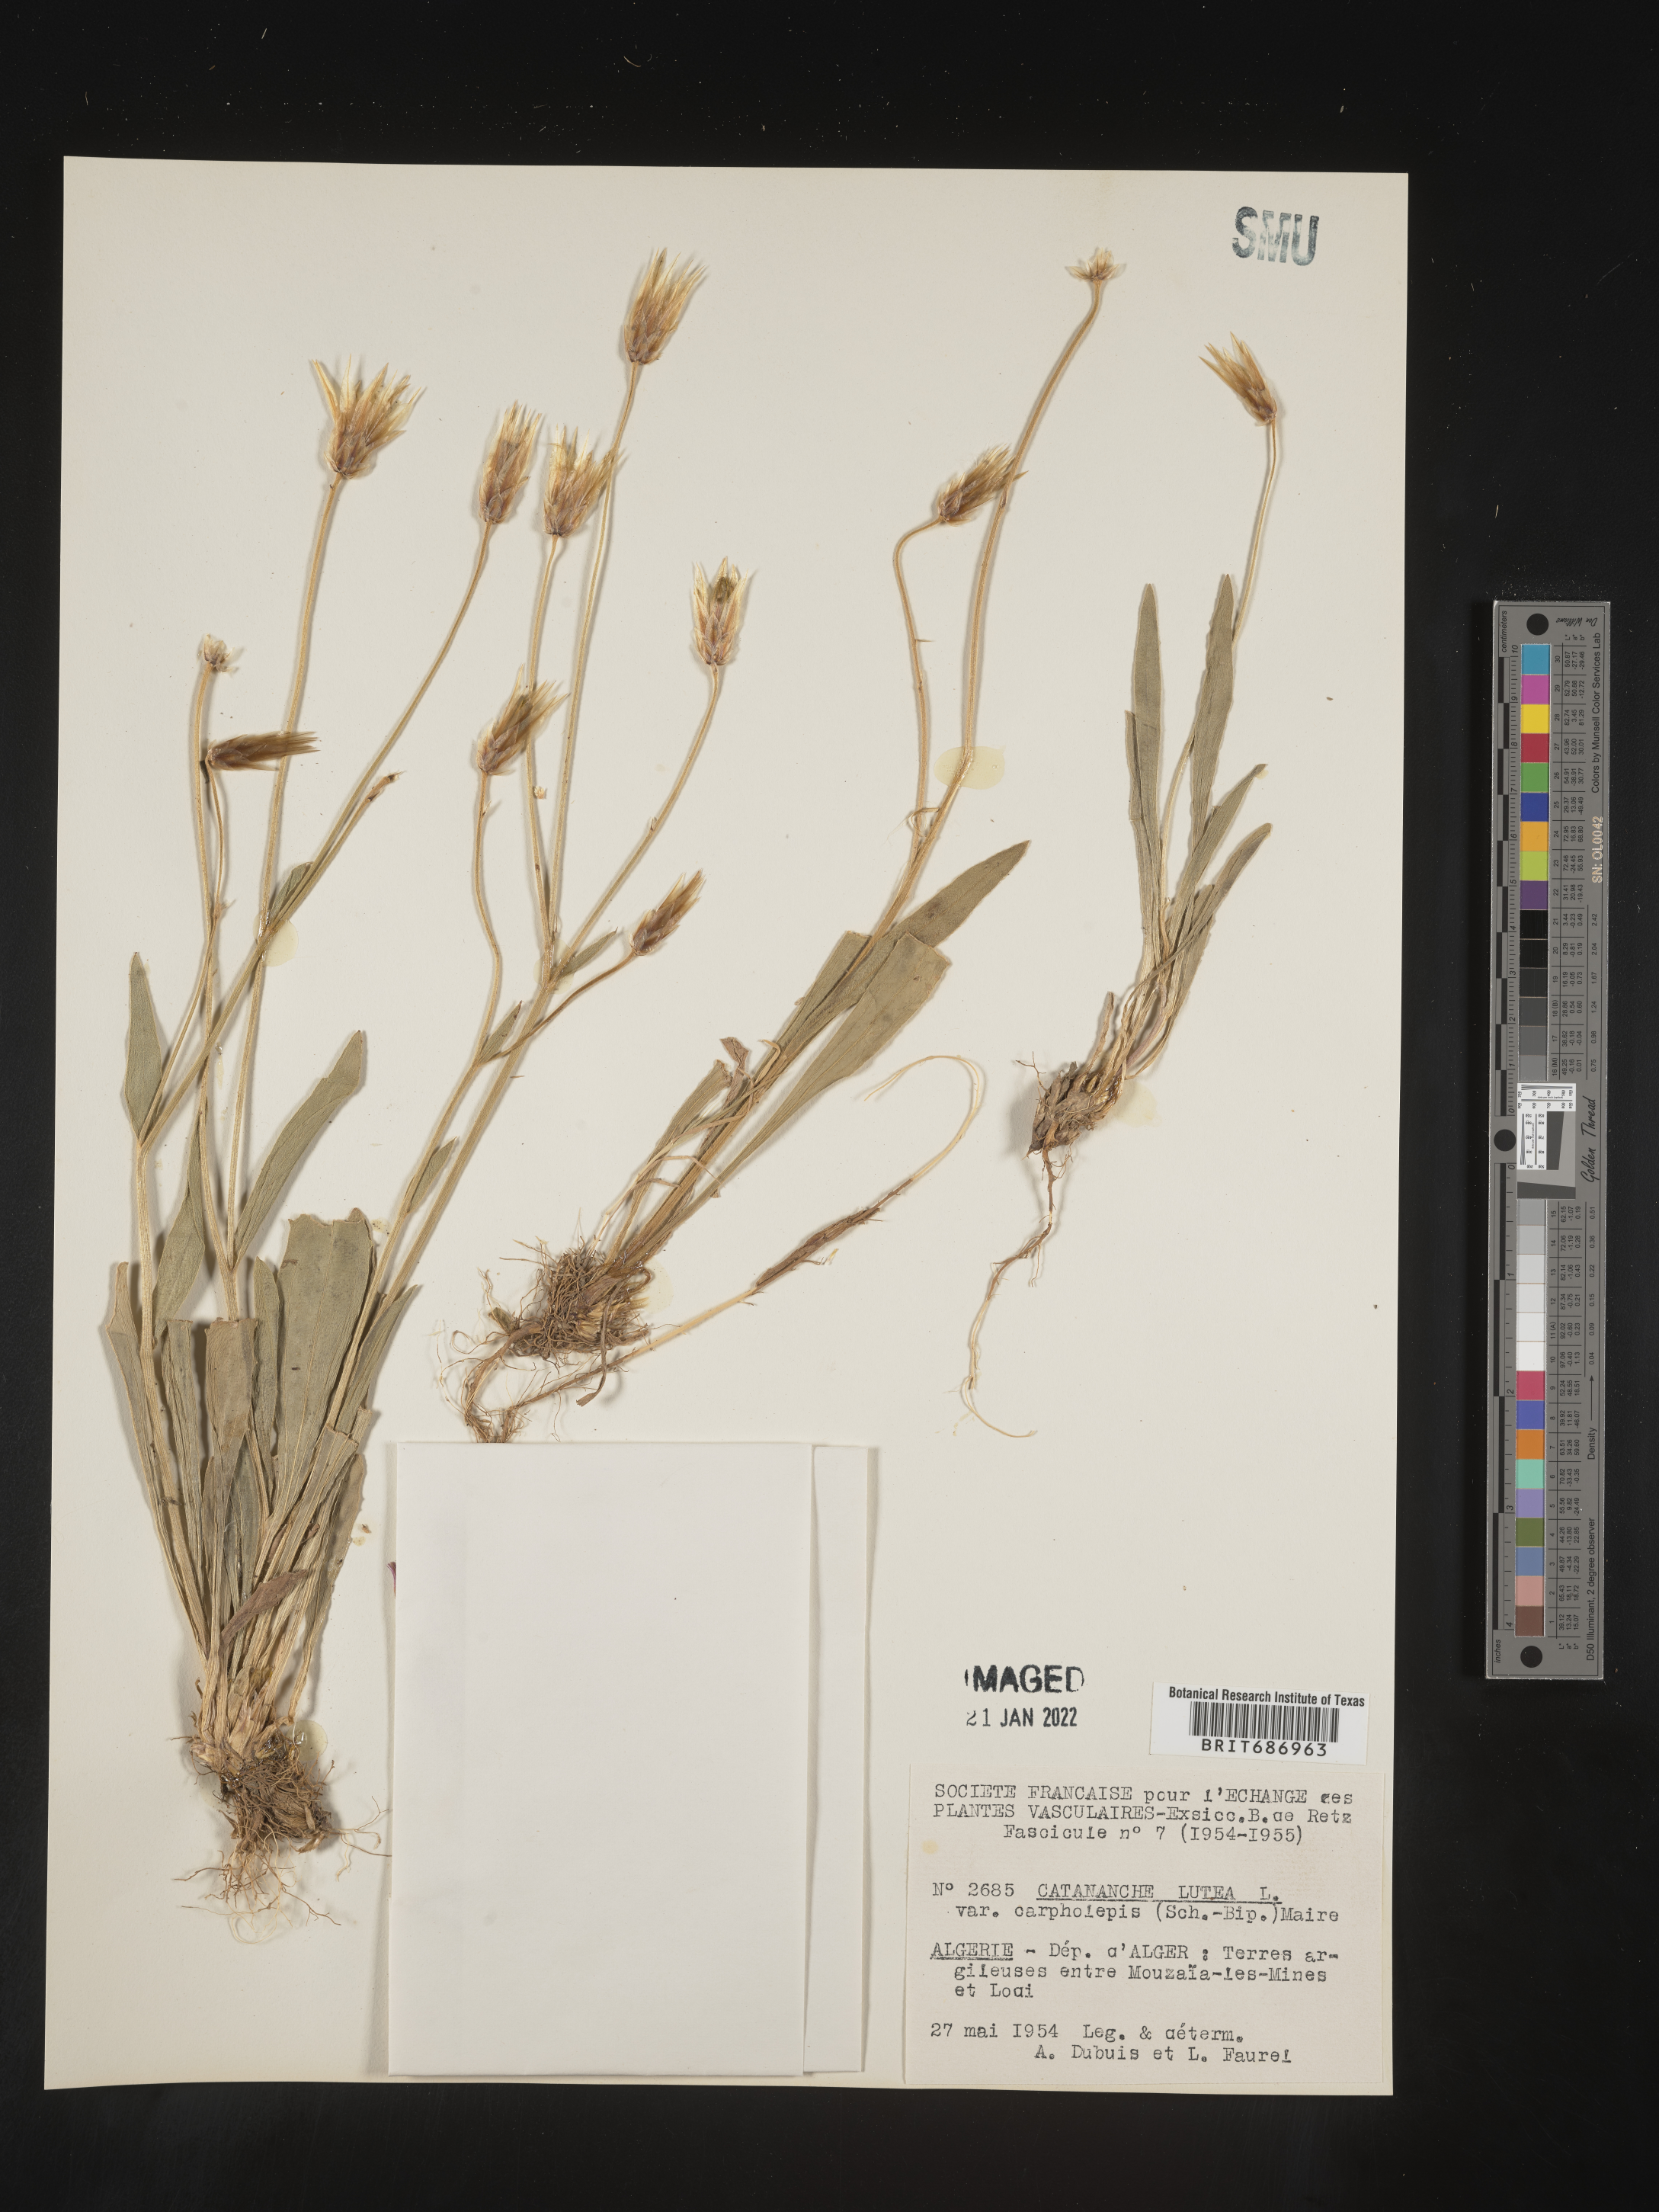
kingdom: Plantae
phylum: Tracheophyta
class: Magnoliopsida
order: Asterales
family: Asteraceae
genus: Catananche
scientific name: Catananche
